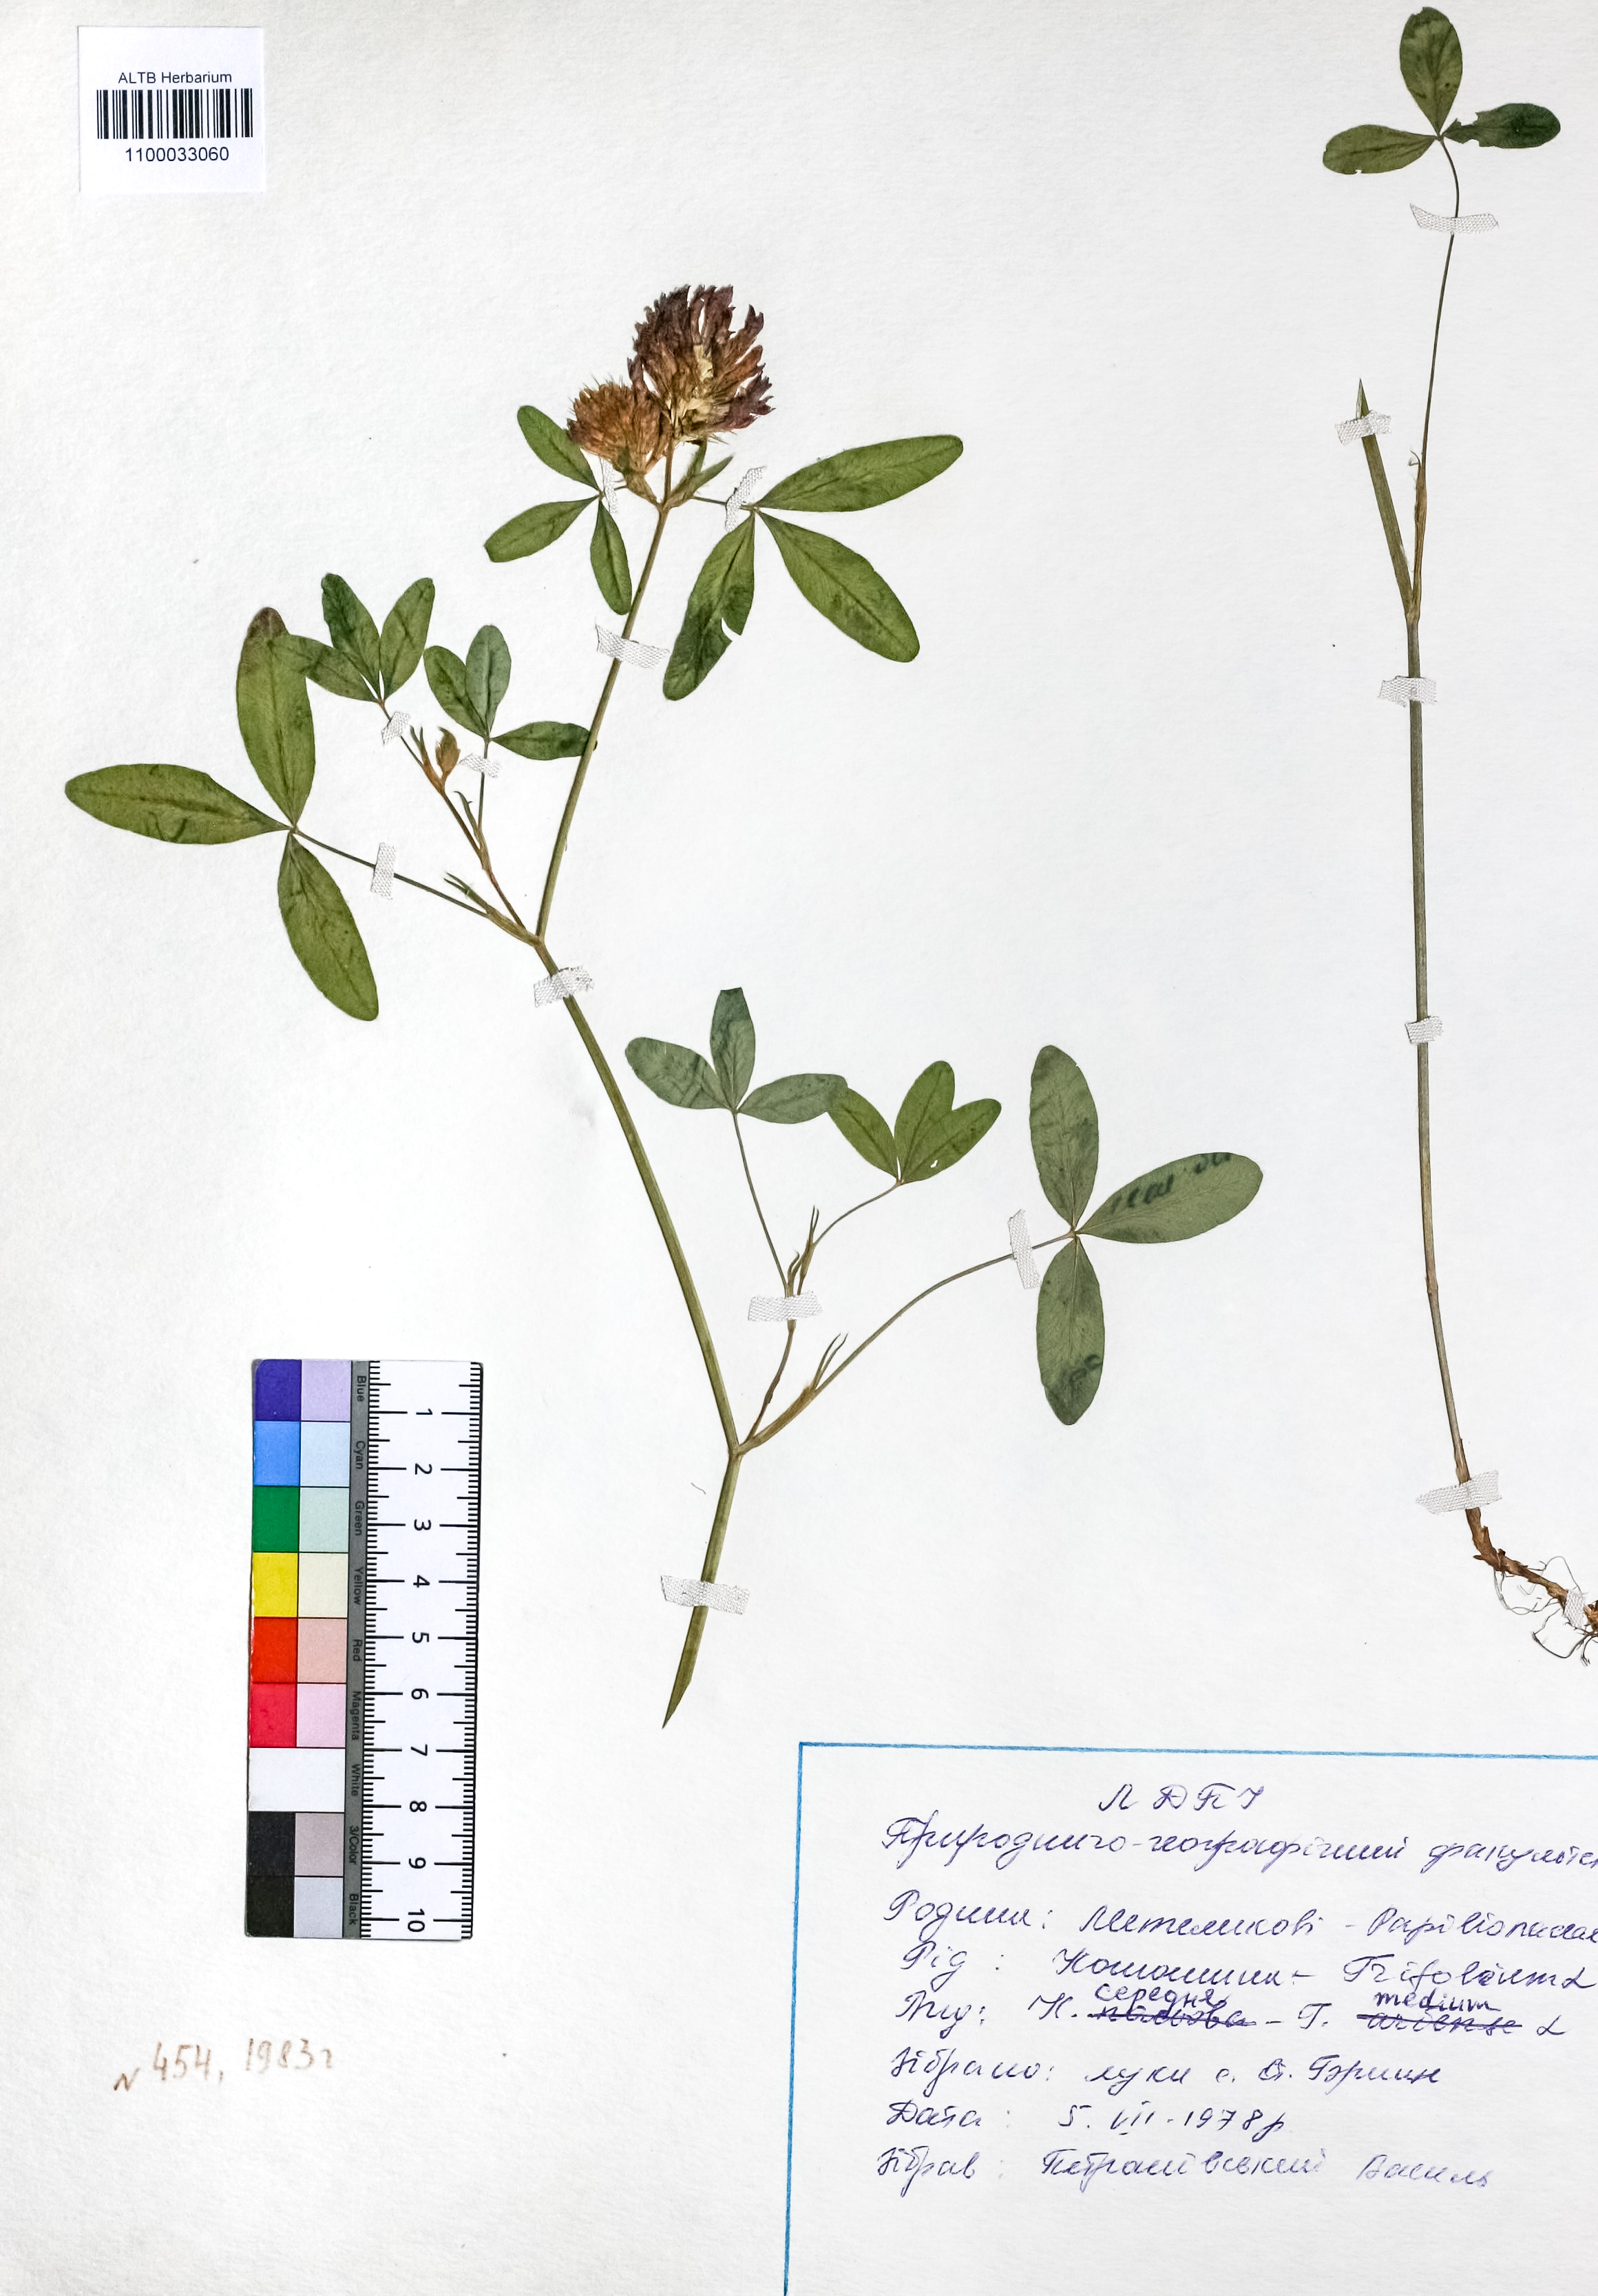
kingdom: Plantae
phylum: Tracheophyta
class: Magnoliopsida
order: Fabales
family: Fabaceae
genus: Trifolium
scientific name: Trifolium medium
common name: Zigzag clover
